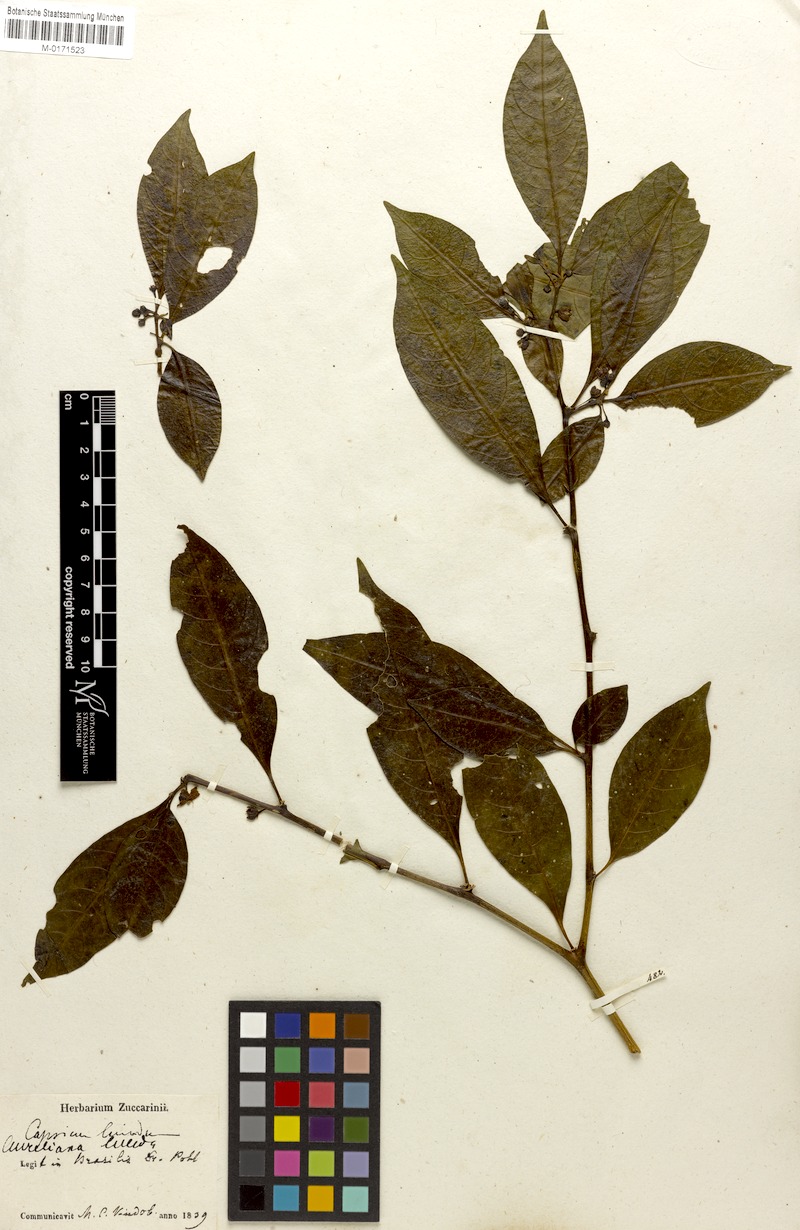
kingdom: Plantae
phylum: Tracheophyta
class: Magnoliopsida
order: Solanales
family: Solanaceae
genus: Athenaea
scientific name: Athenaea fasciculata
